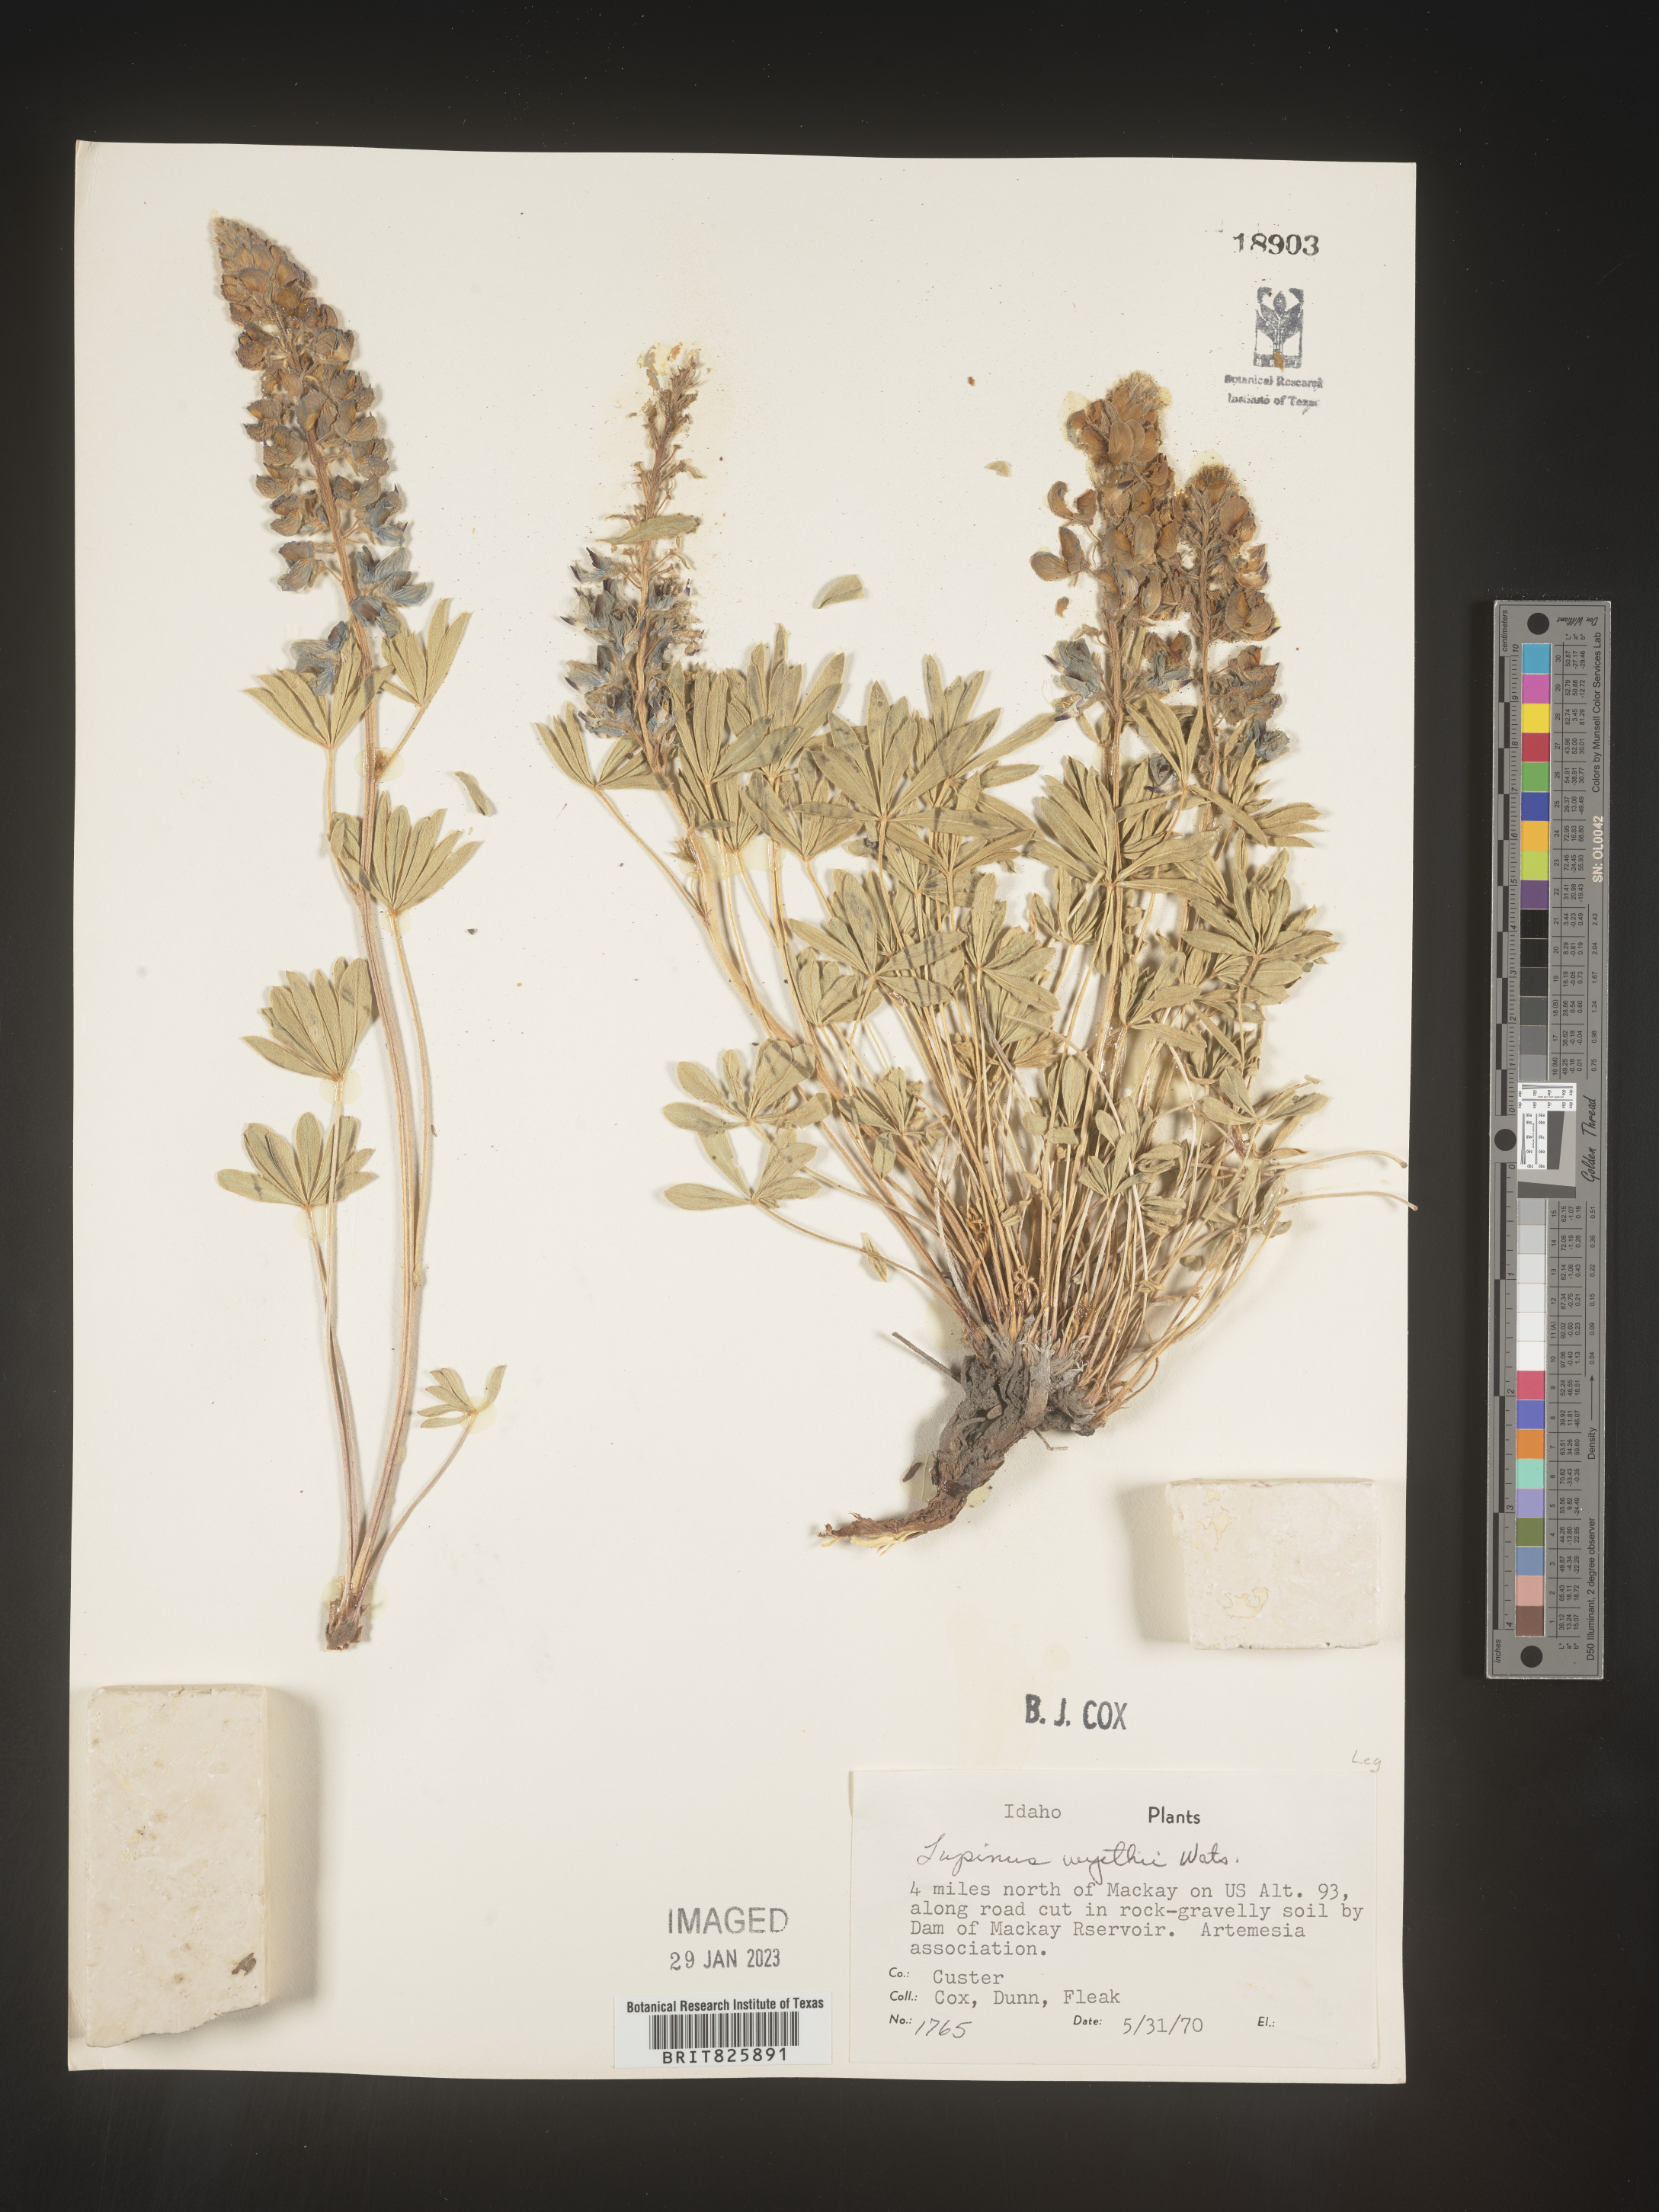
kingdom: Plantae
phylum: Tracheophyta
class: Magnoliopsida
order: Fabales
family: Fabaceae
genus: Lupinus
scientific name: Lupinus
